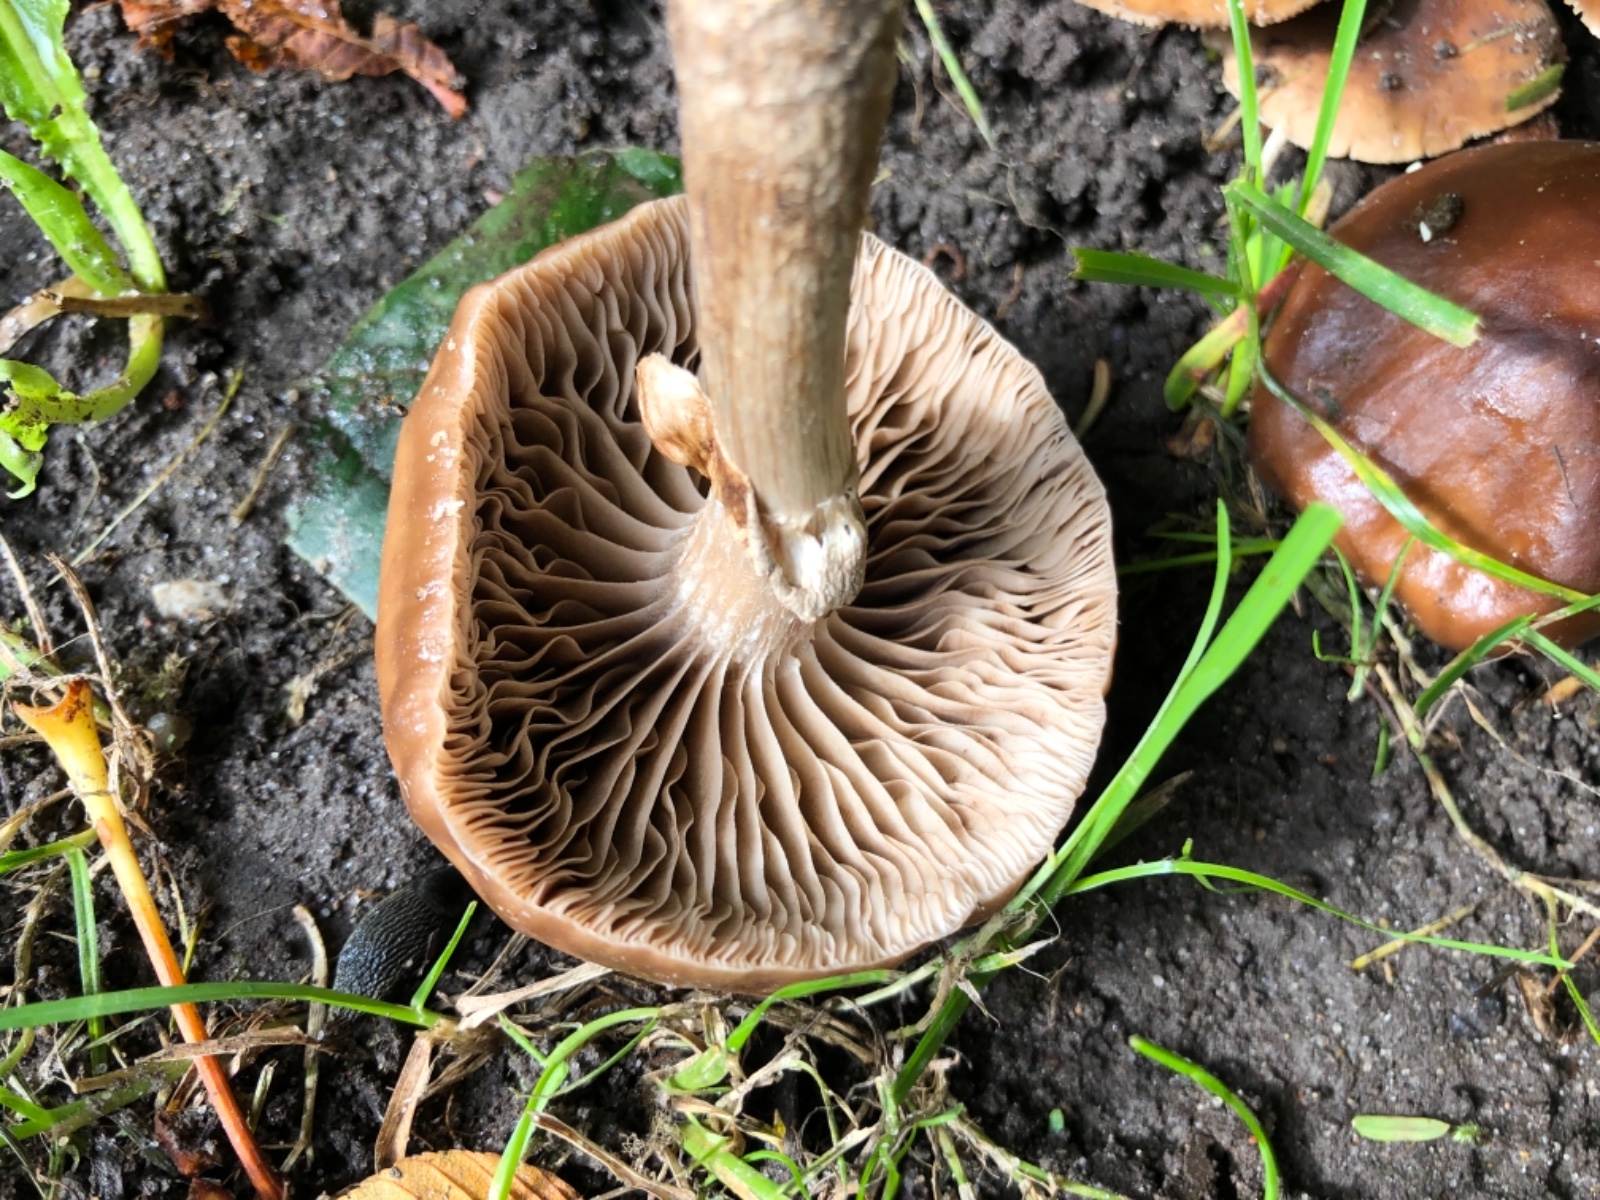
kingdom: Fungi
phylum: Basidiomycota
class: Agaricomycetes
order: Agaricales
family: Tubariaceae
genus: Cyclocybe
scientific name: Cyclocybe erebia
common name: mørk agerhat
